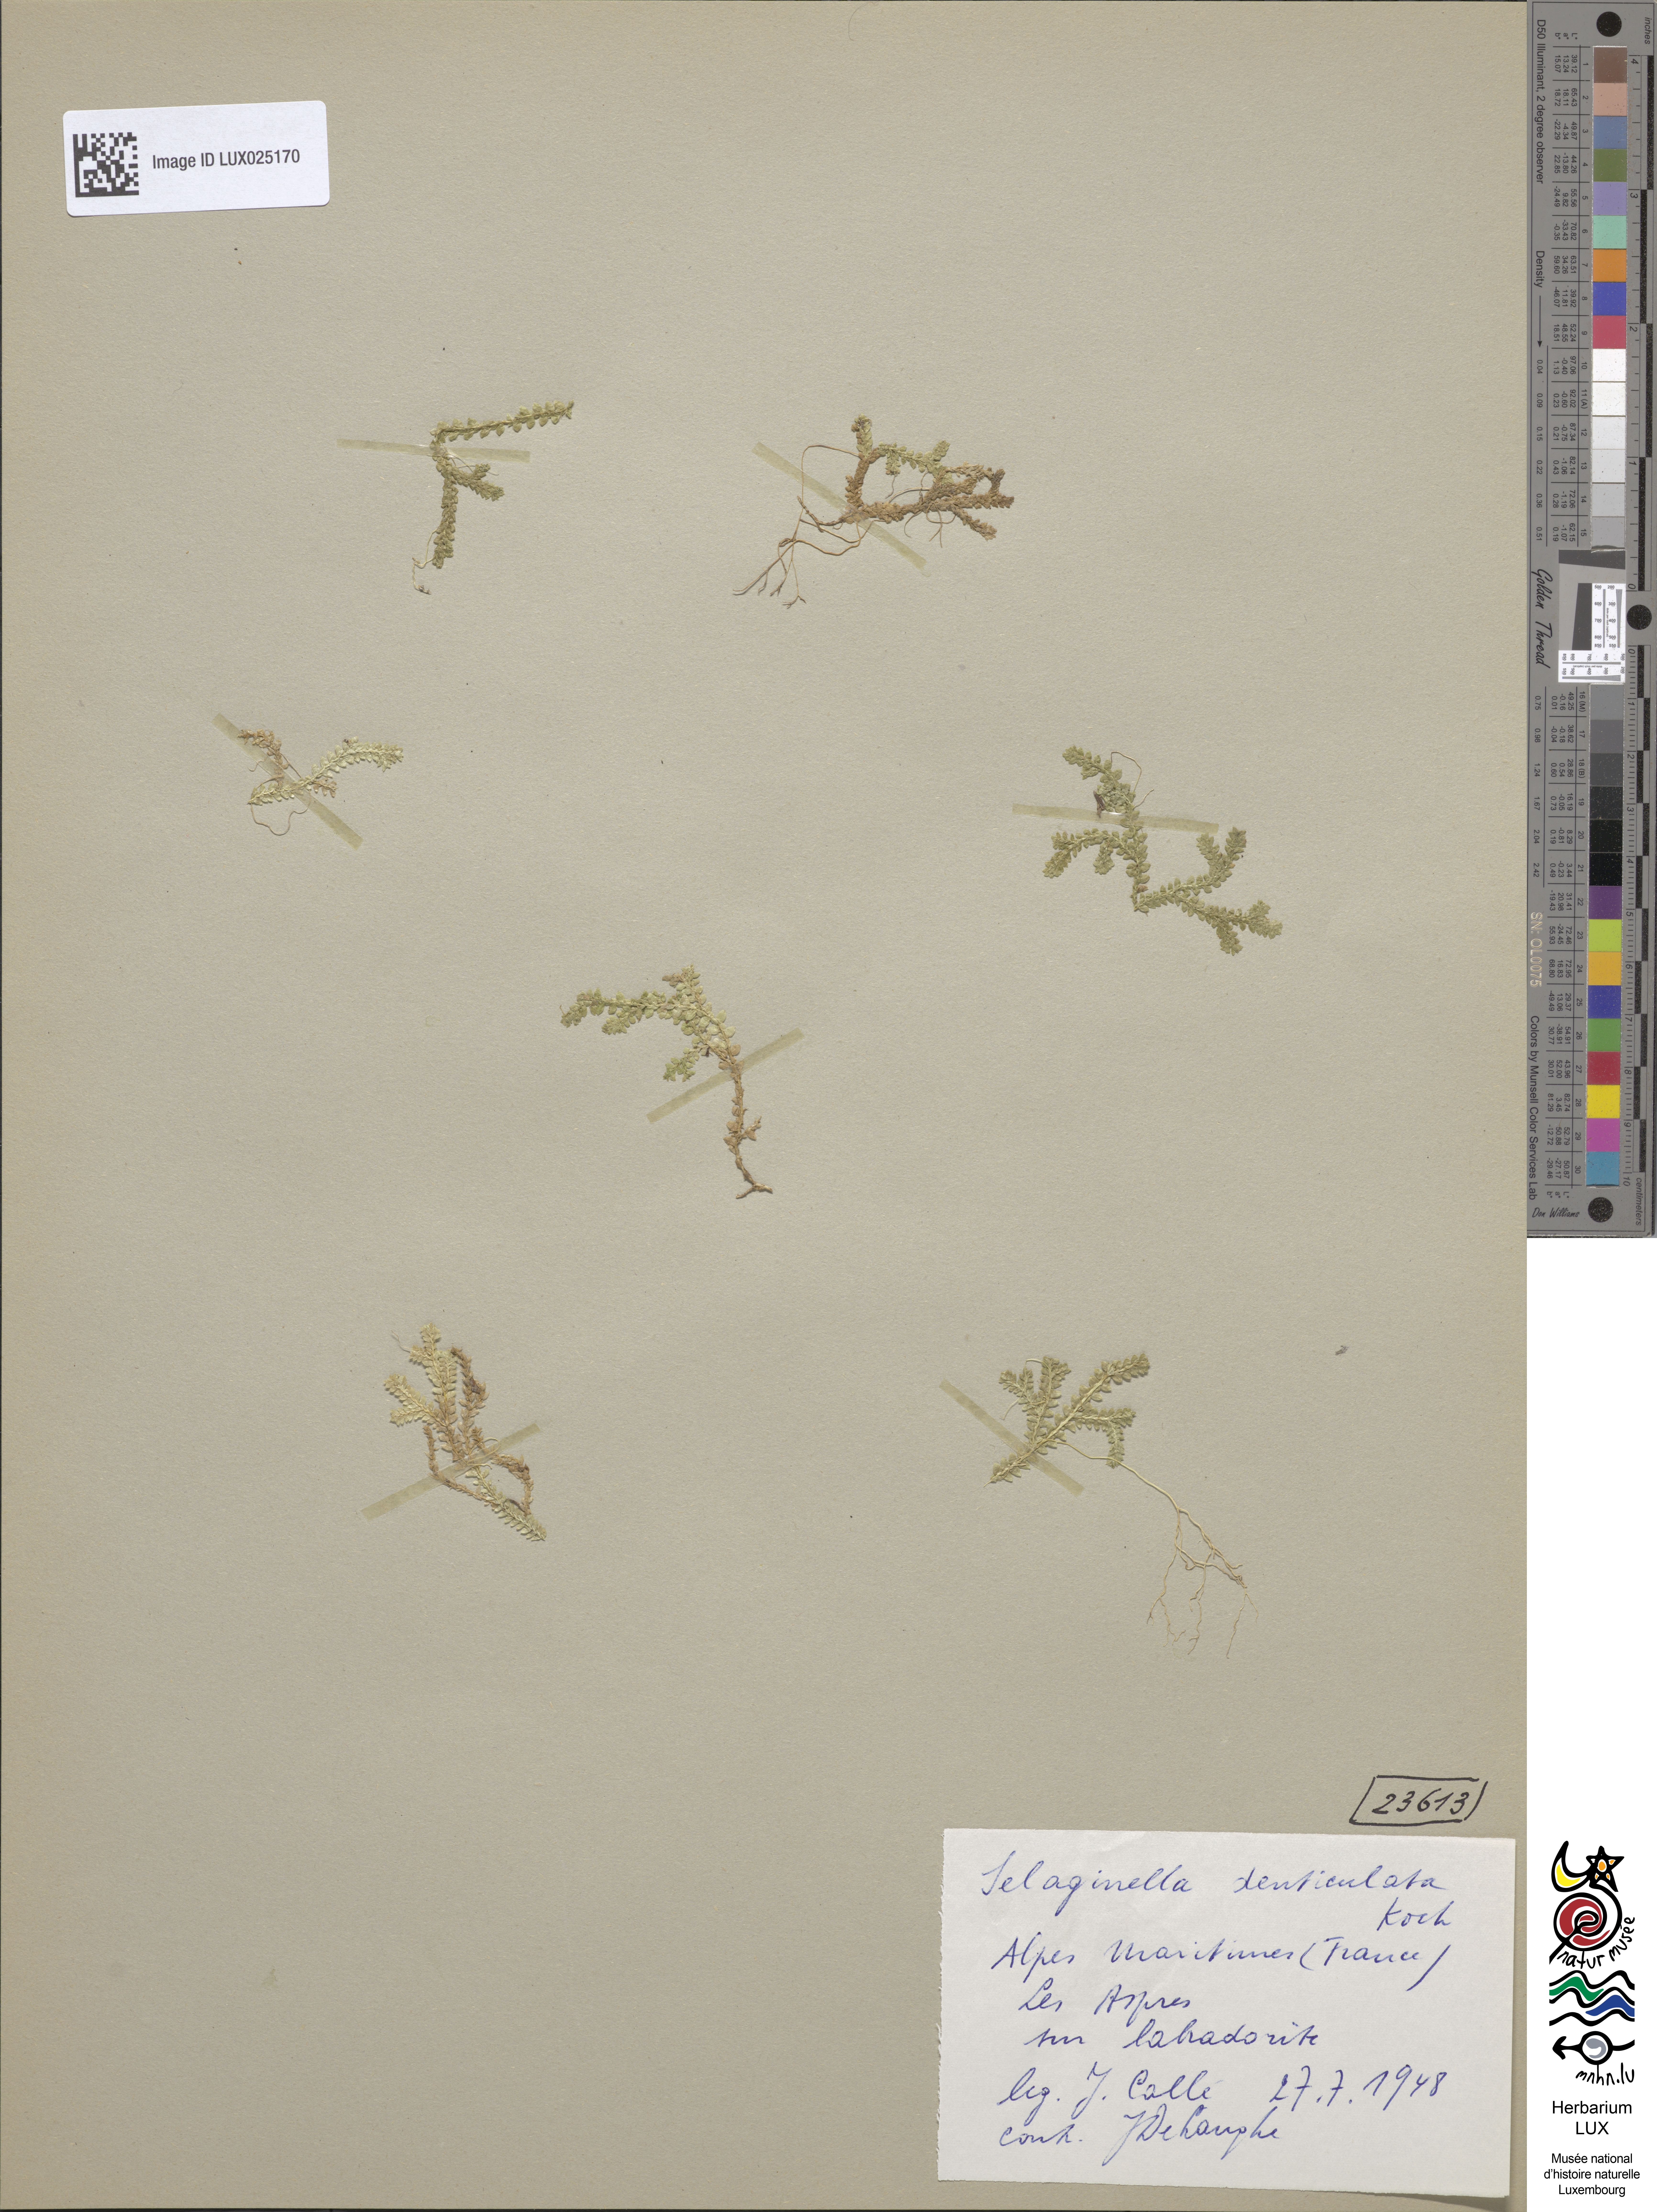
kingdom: Plantae
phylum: Tracheophyta
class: Lycopodiopsida
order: Selaginellales
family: Selaginellaceae
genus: Selaginella
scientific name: Selaginella denticulata
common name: Toothed-leaved clubmoss
